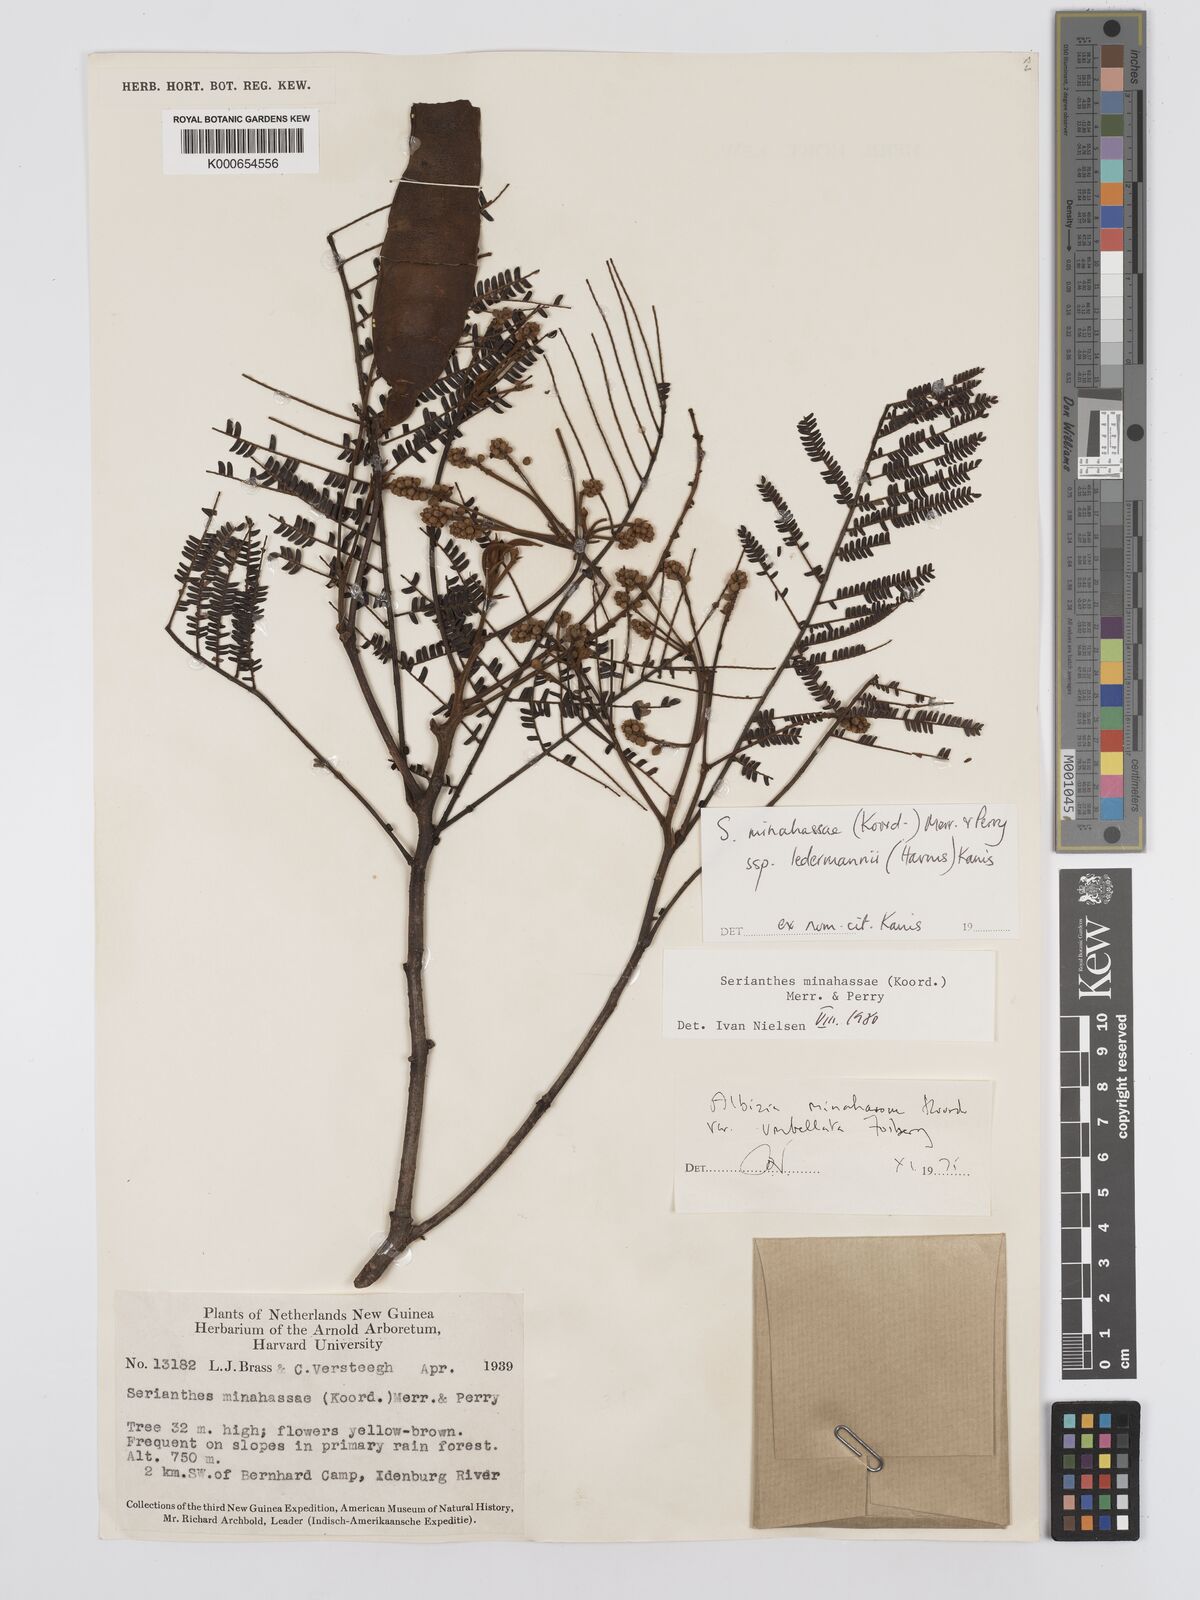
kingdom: Plantae
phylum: Tracheophyta
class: Magnoliopsida
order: Fabales
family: Fabaceae
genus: Serianthes
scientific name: Serianthes minahassae
